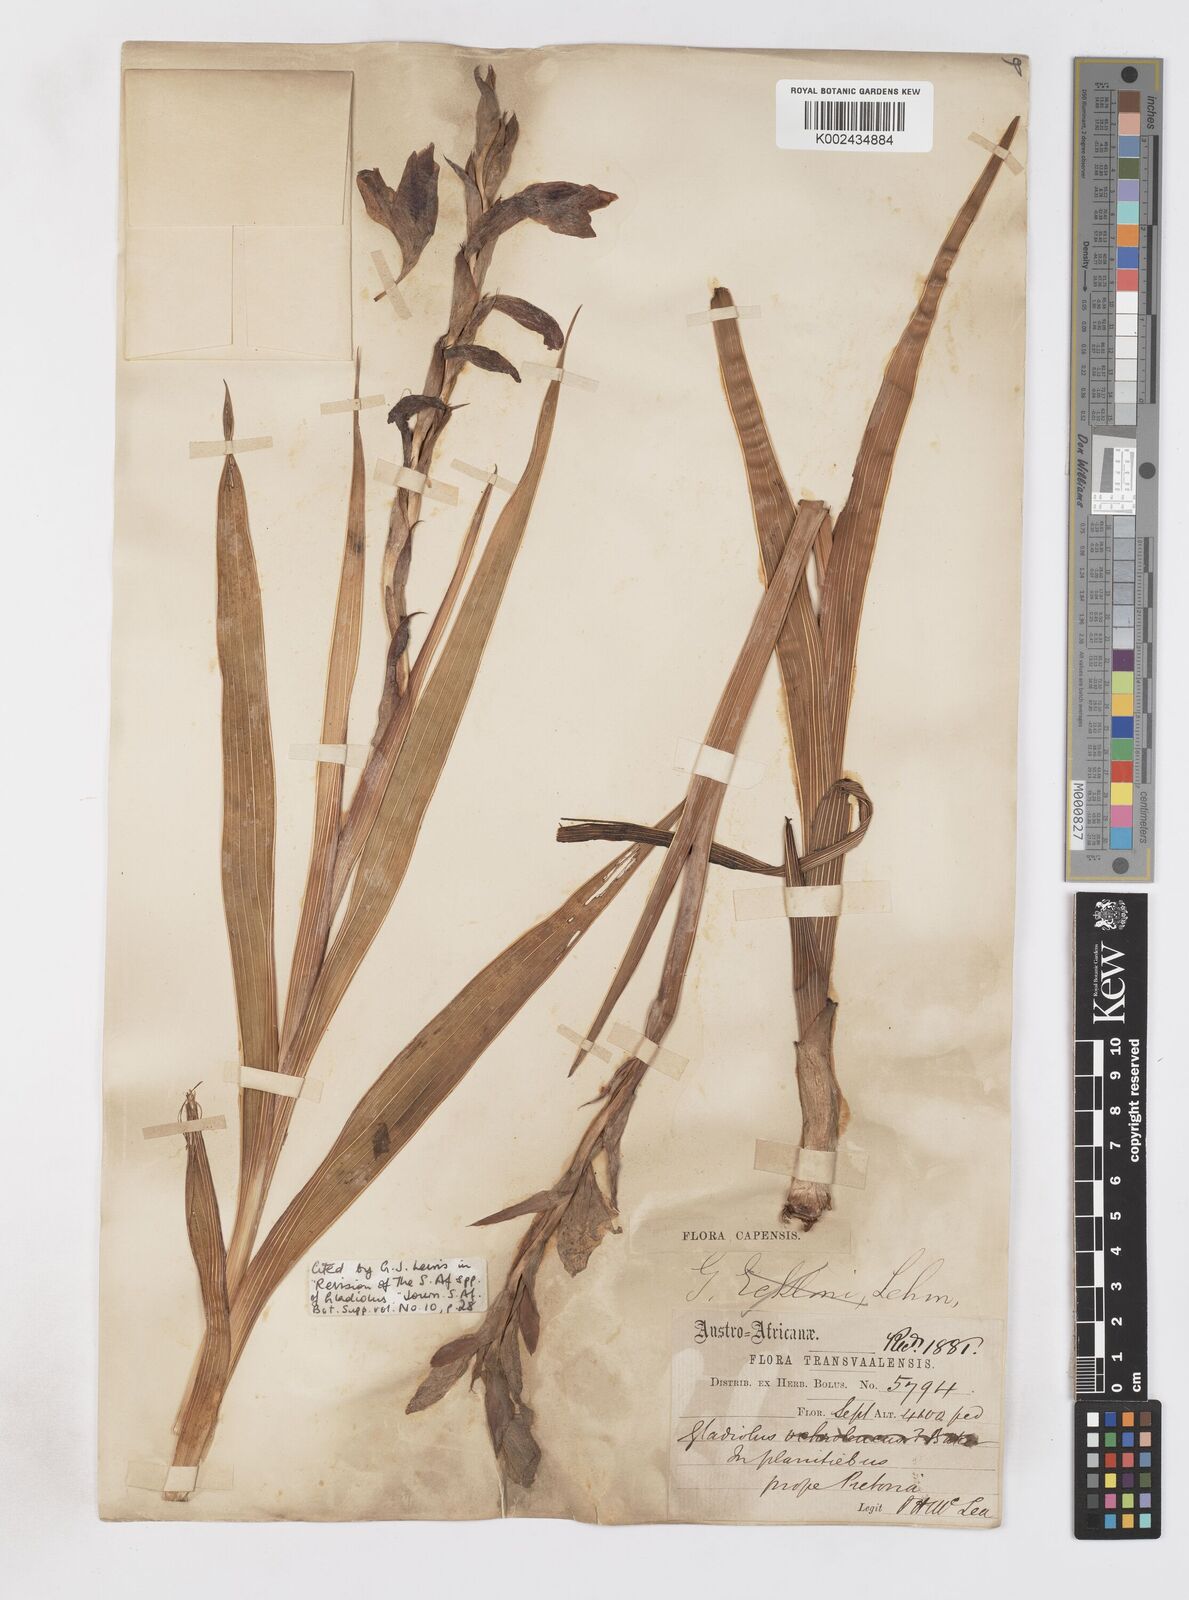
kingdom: Plantae
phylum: Tracheophyta
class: Liliopsida
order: Asparagales
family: Iridaceae
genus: Gladiolus
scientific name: Gladiolus elliotii
